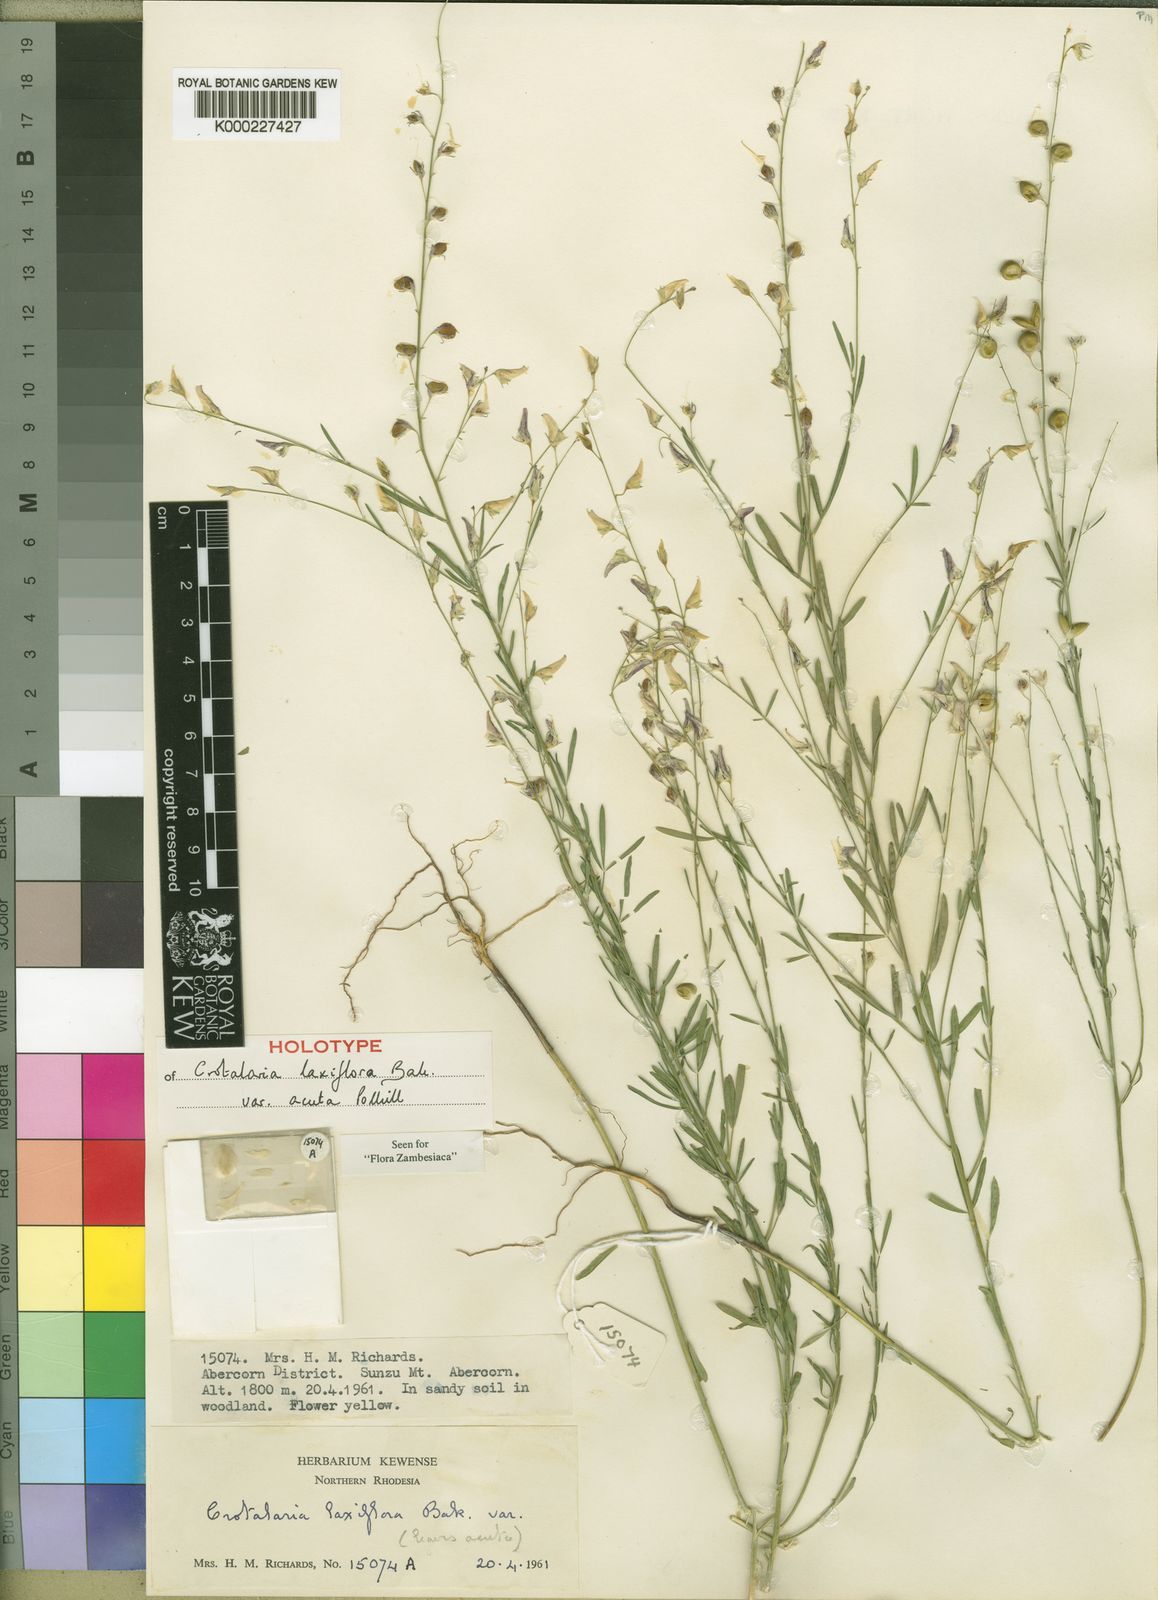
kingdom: Plantae
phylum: Tracheophyta
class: Magnoliopsida
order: Fabales
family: Fabaceae
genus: Crotalaria
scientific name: Crotalaria laxiflora
